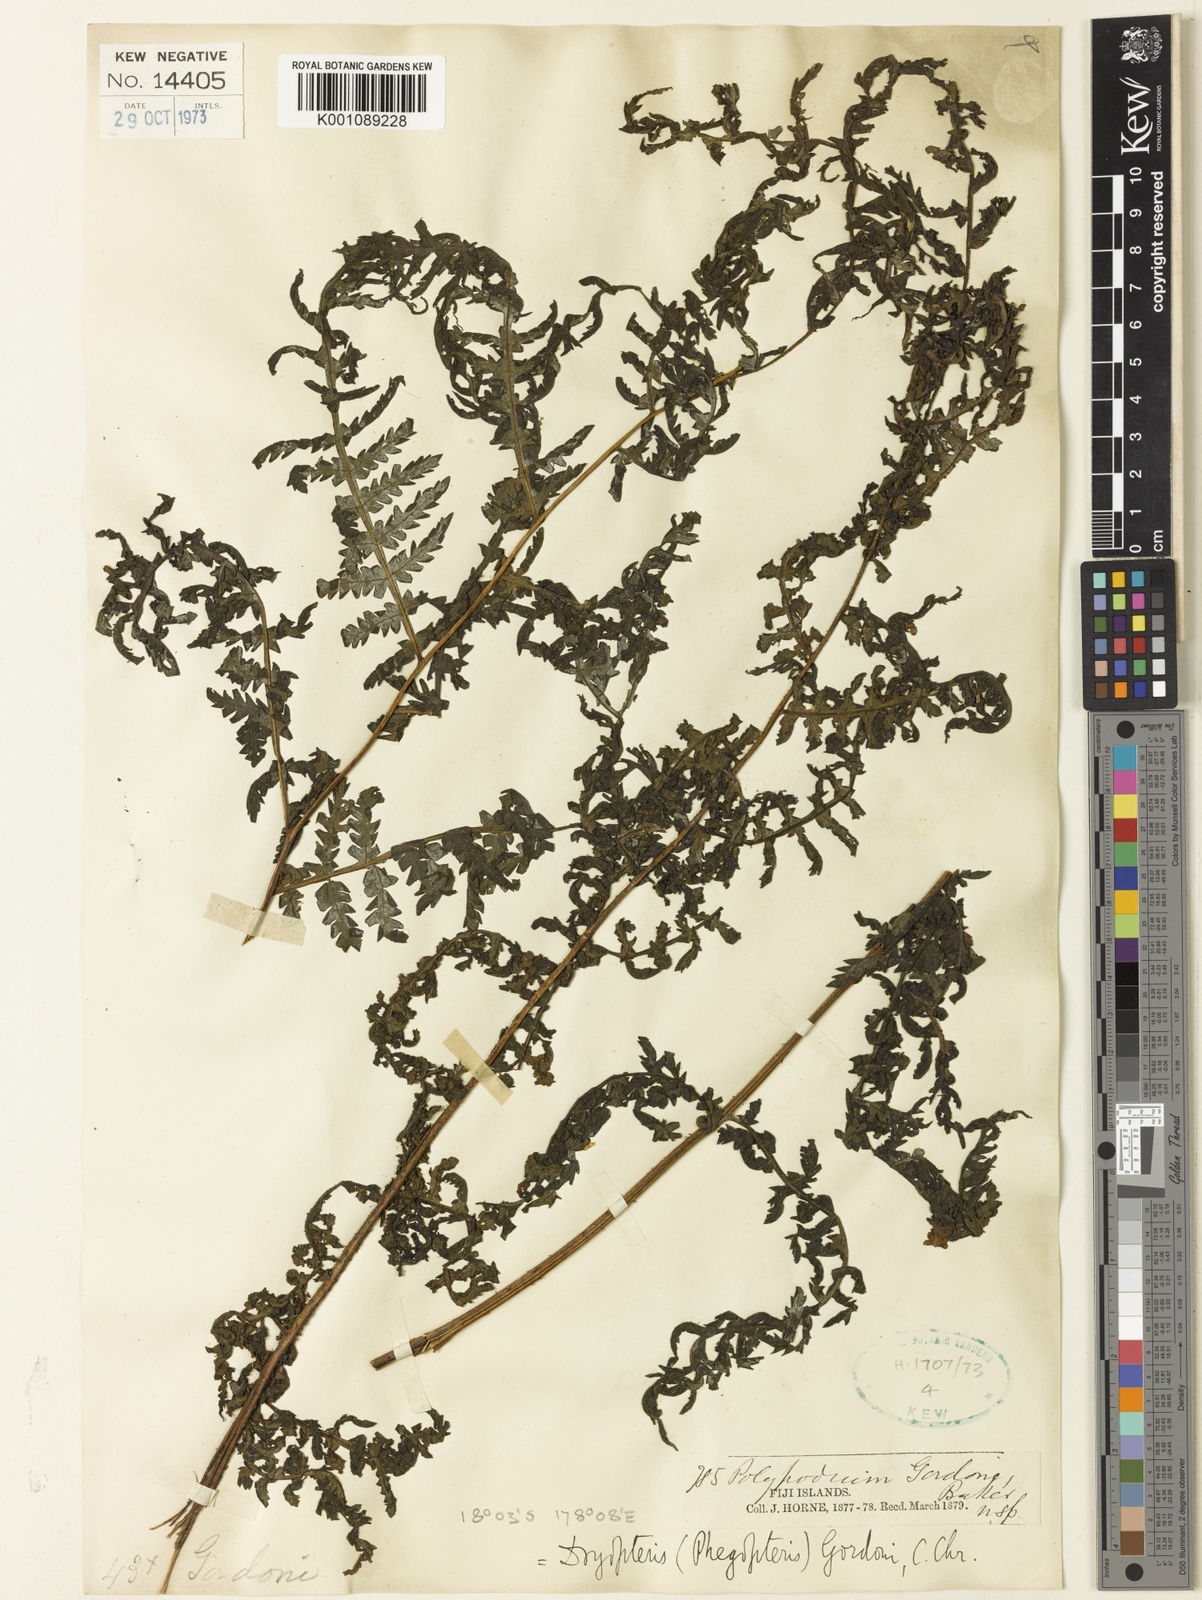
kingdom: Plantae
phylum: Tracheophyta
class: Polypodiopsida
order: Polypodiales
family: Athyriaceae
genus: Deparia
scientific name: Deparia boryana
